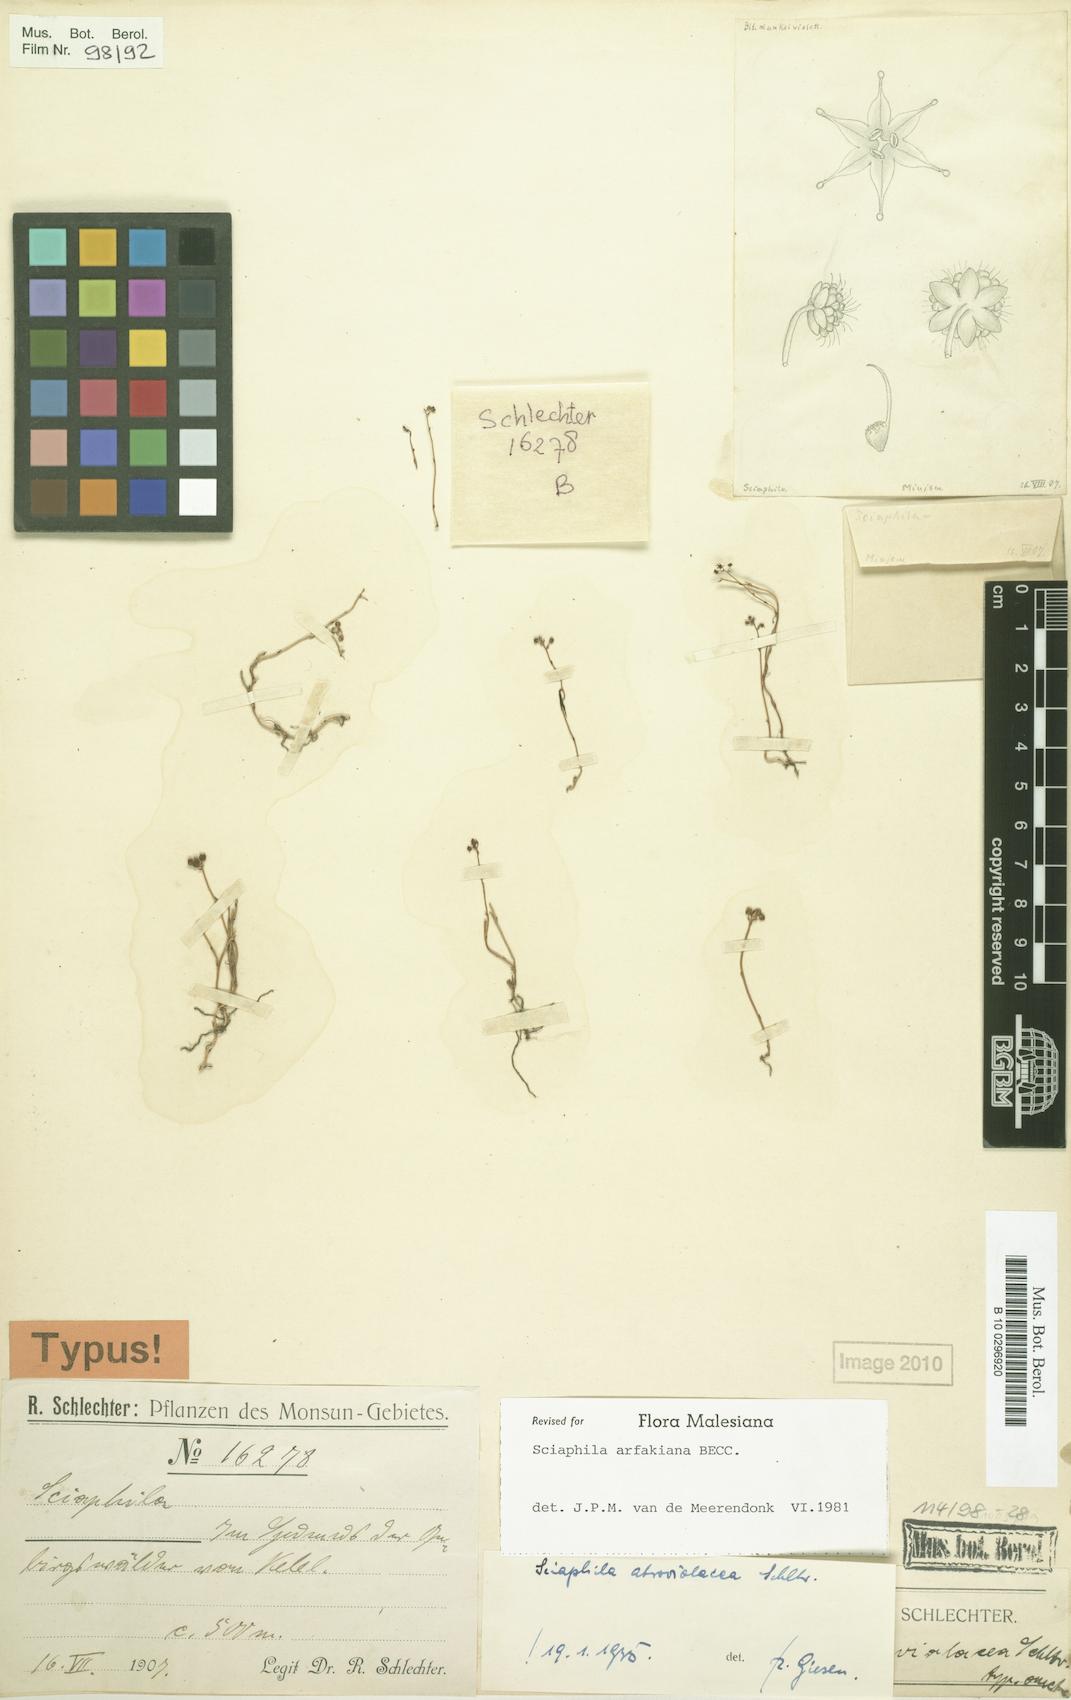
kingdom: Plantae
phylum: Tracheophyta
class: Liliopsida
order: Pandanales
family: Triuridaceae
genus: Sciaphila
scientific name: Sciaphila arfakiana
